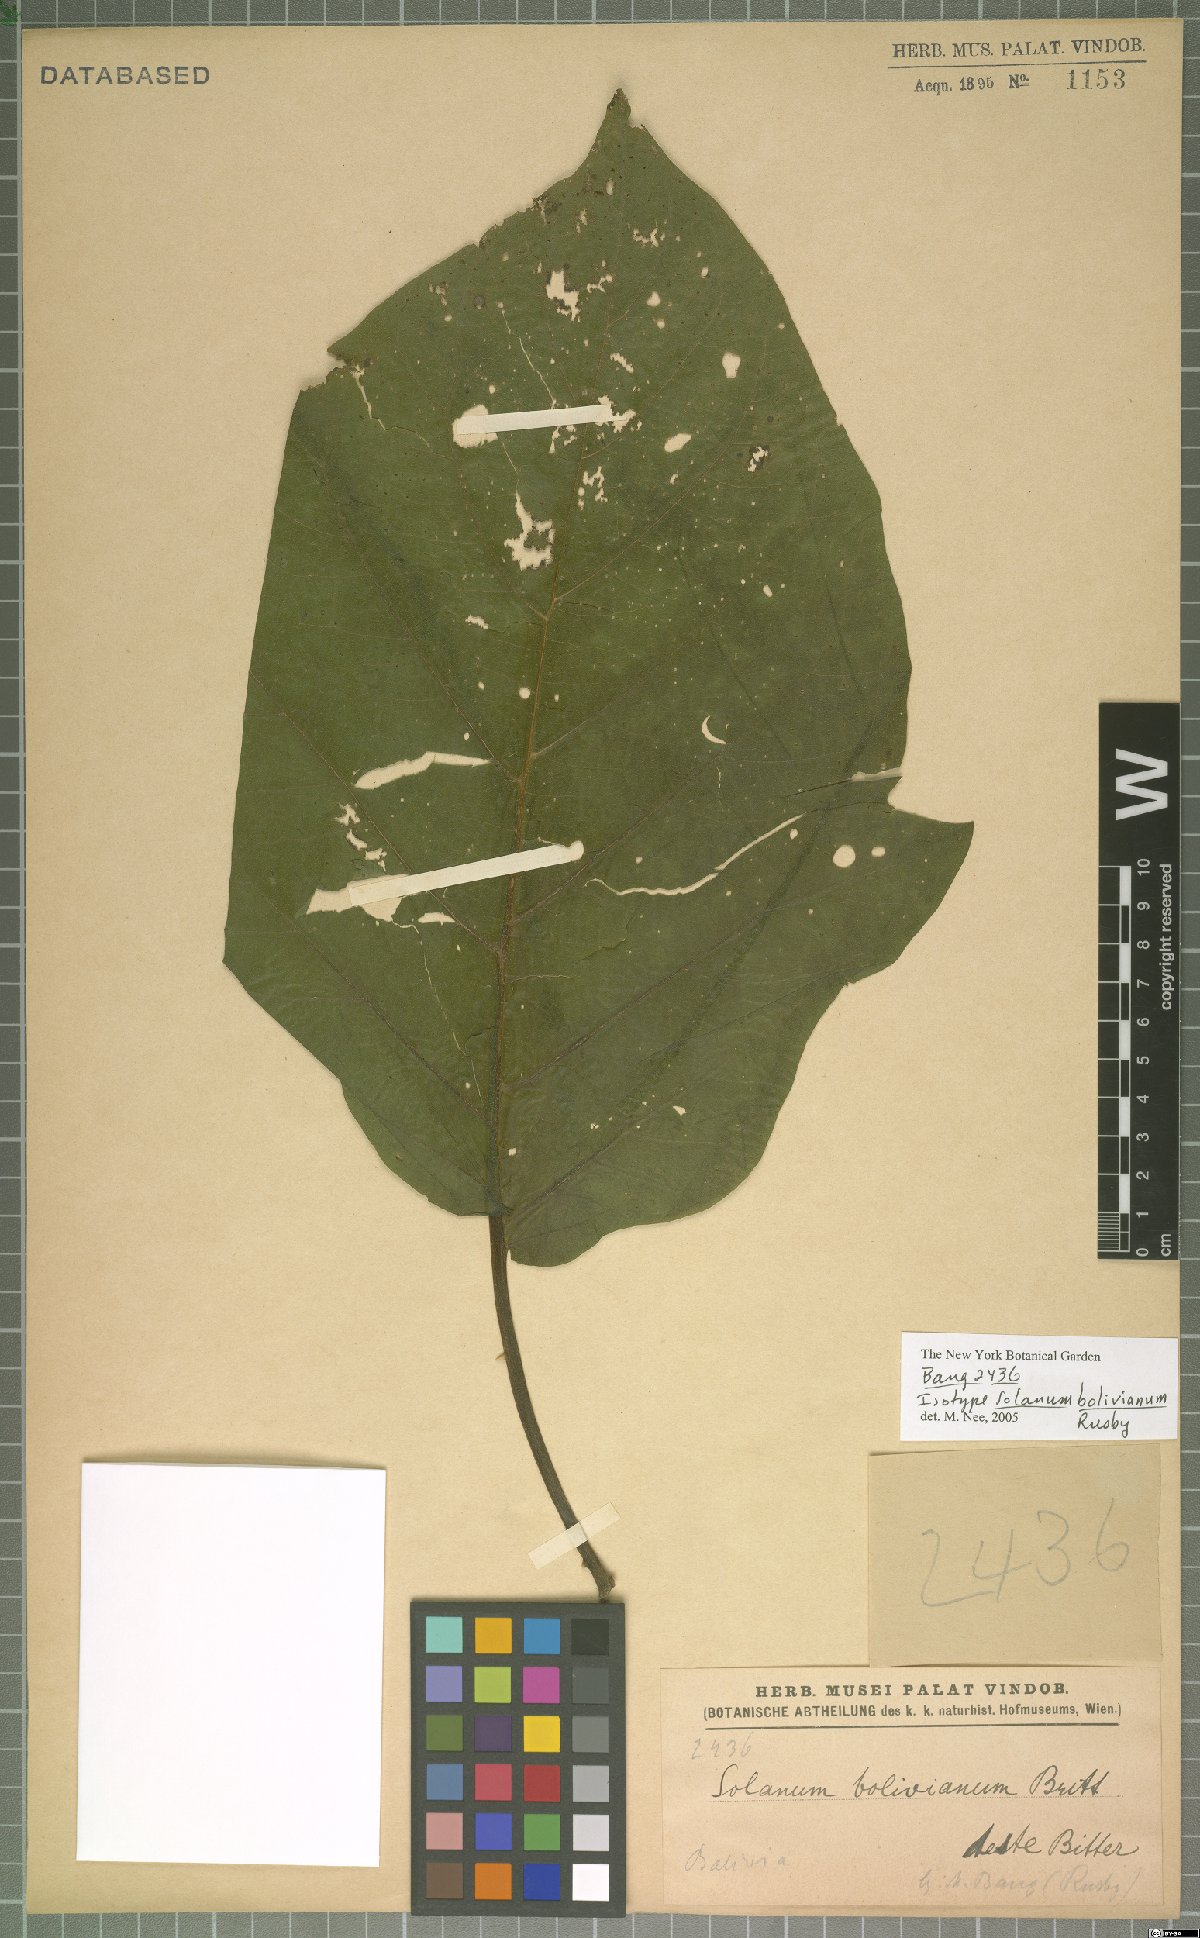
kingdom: Plantae
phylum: Tracheophyta
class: Magnoliopsida
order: Solanales
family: Solanaceae
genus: Solanum
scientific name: Solanum bolivianum
